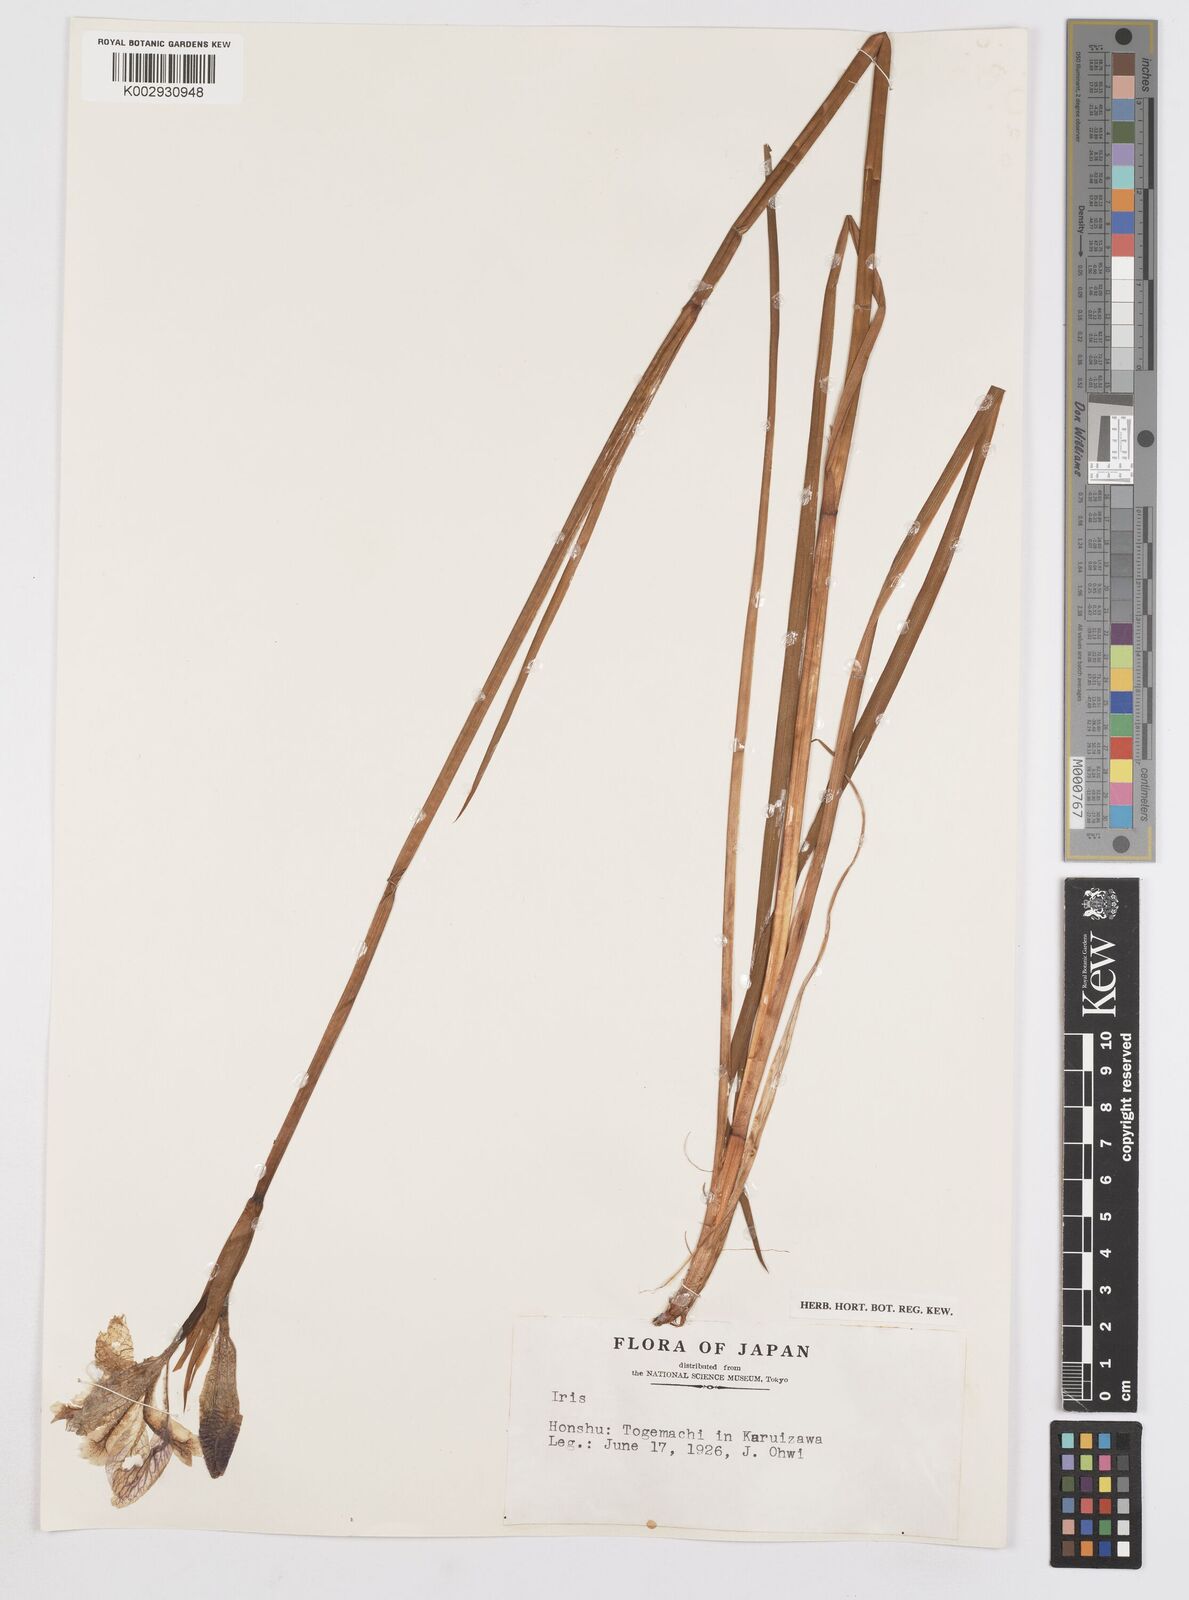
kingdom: Plantae
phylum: Tracheophyta
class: Liliopsida
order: Asparagales
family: Iridaceae
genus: Iris
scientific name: Iris
